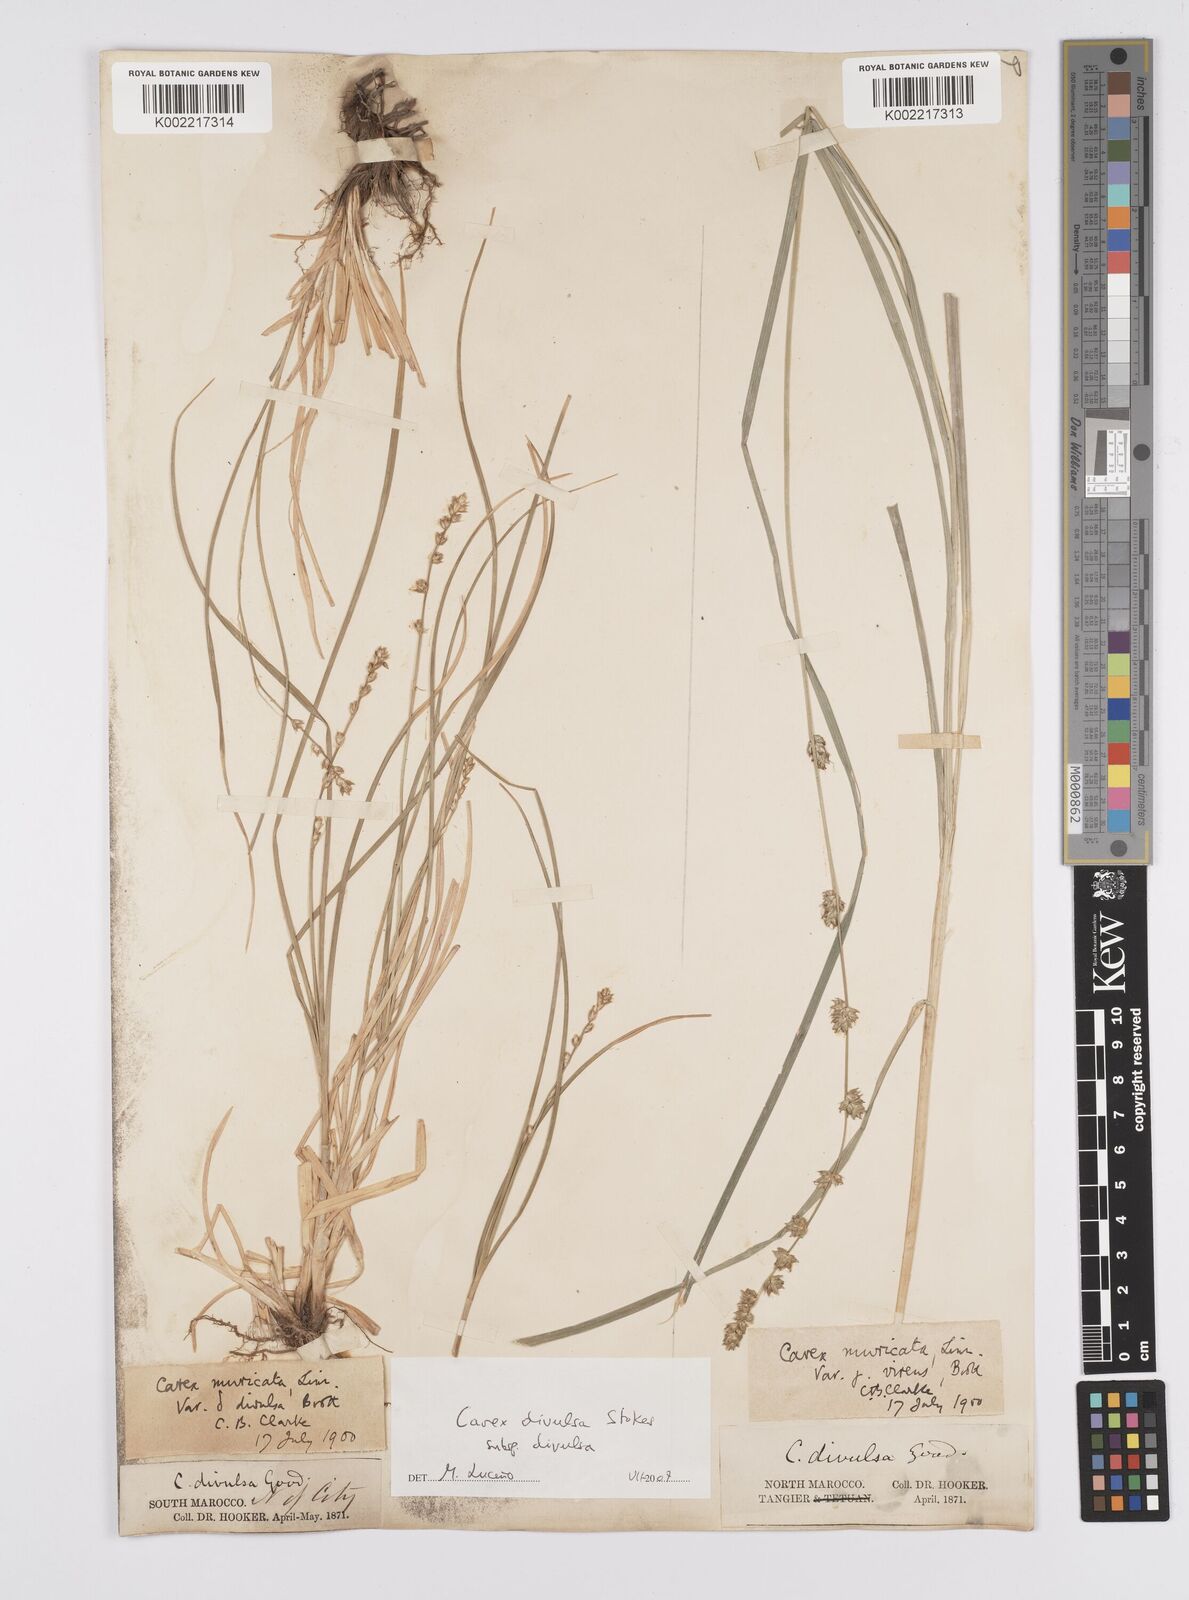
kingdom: Plantae
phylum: Tracheophyta
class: Liliopsida
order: Poales
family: Cyperaceae
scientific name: Cyperaceae
